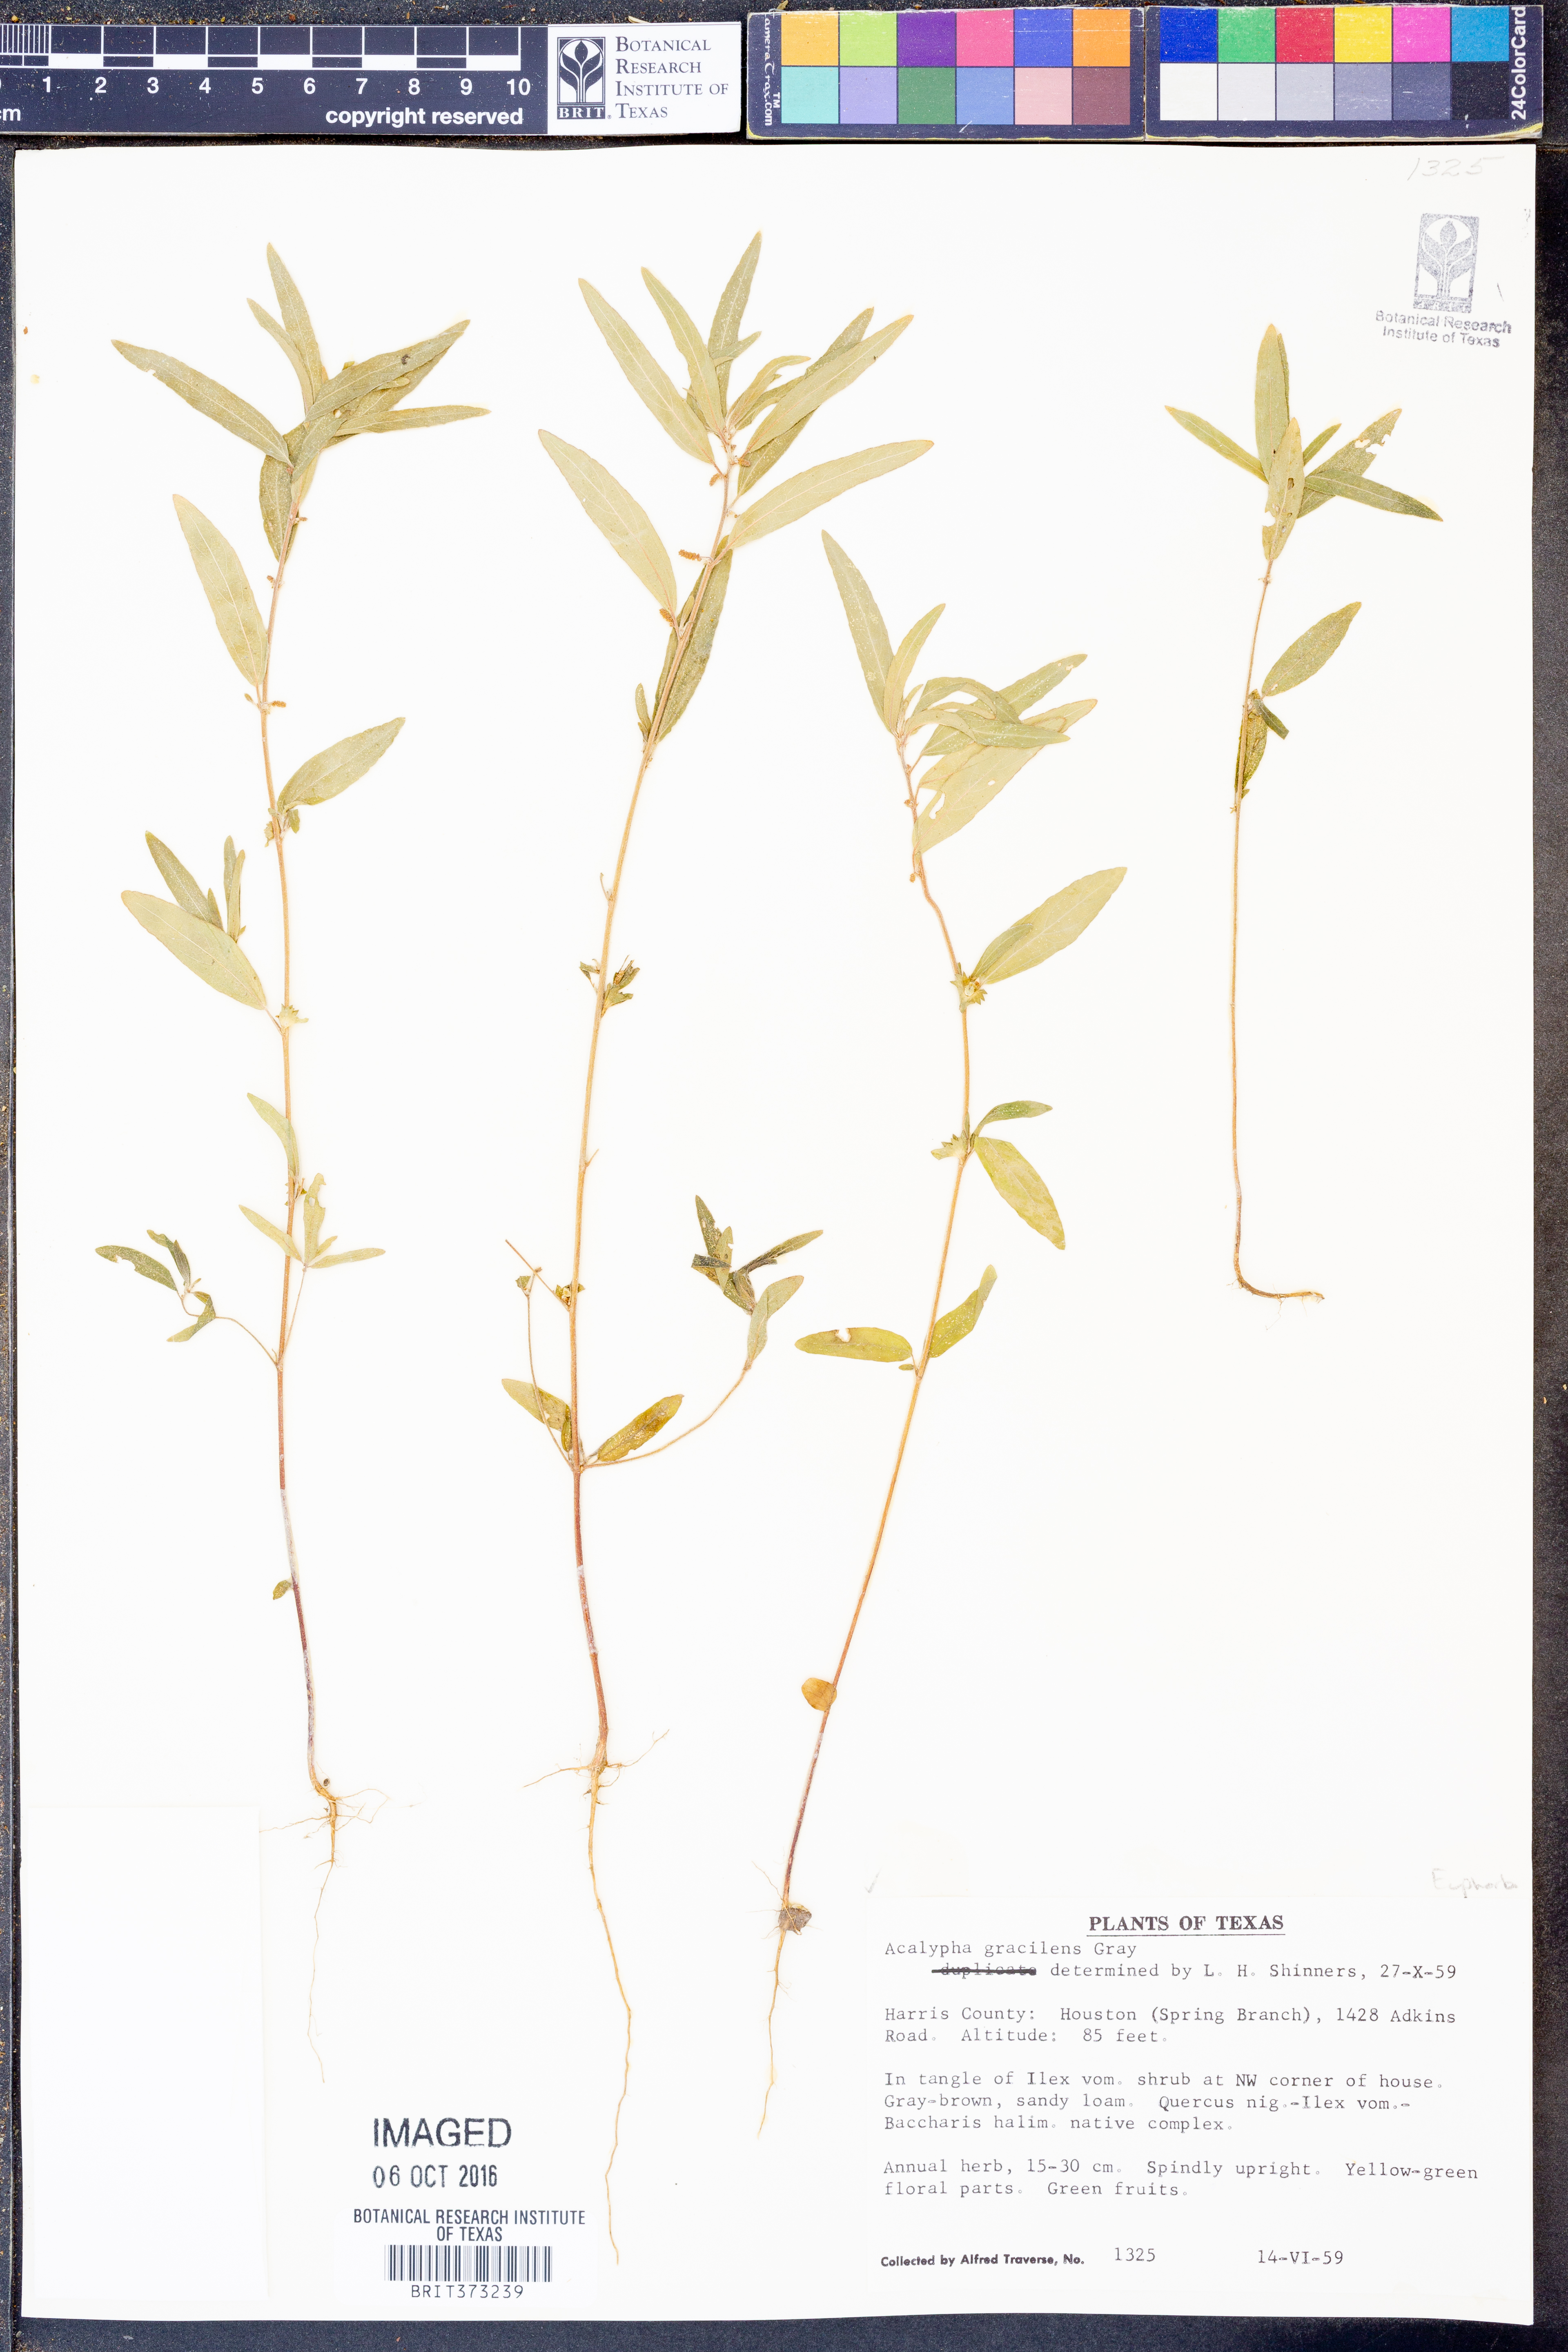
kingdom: Plantae
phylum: Tracheophyta
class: Magnoliopsida
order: Malpighiales
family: Euphorbiaceae
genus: Acalypha
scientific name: Acalypha gracilens
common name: Slender three-seeded mercury
